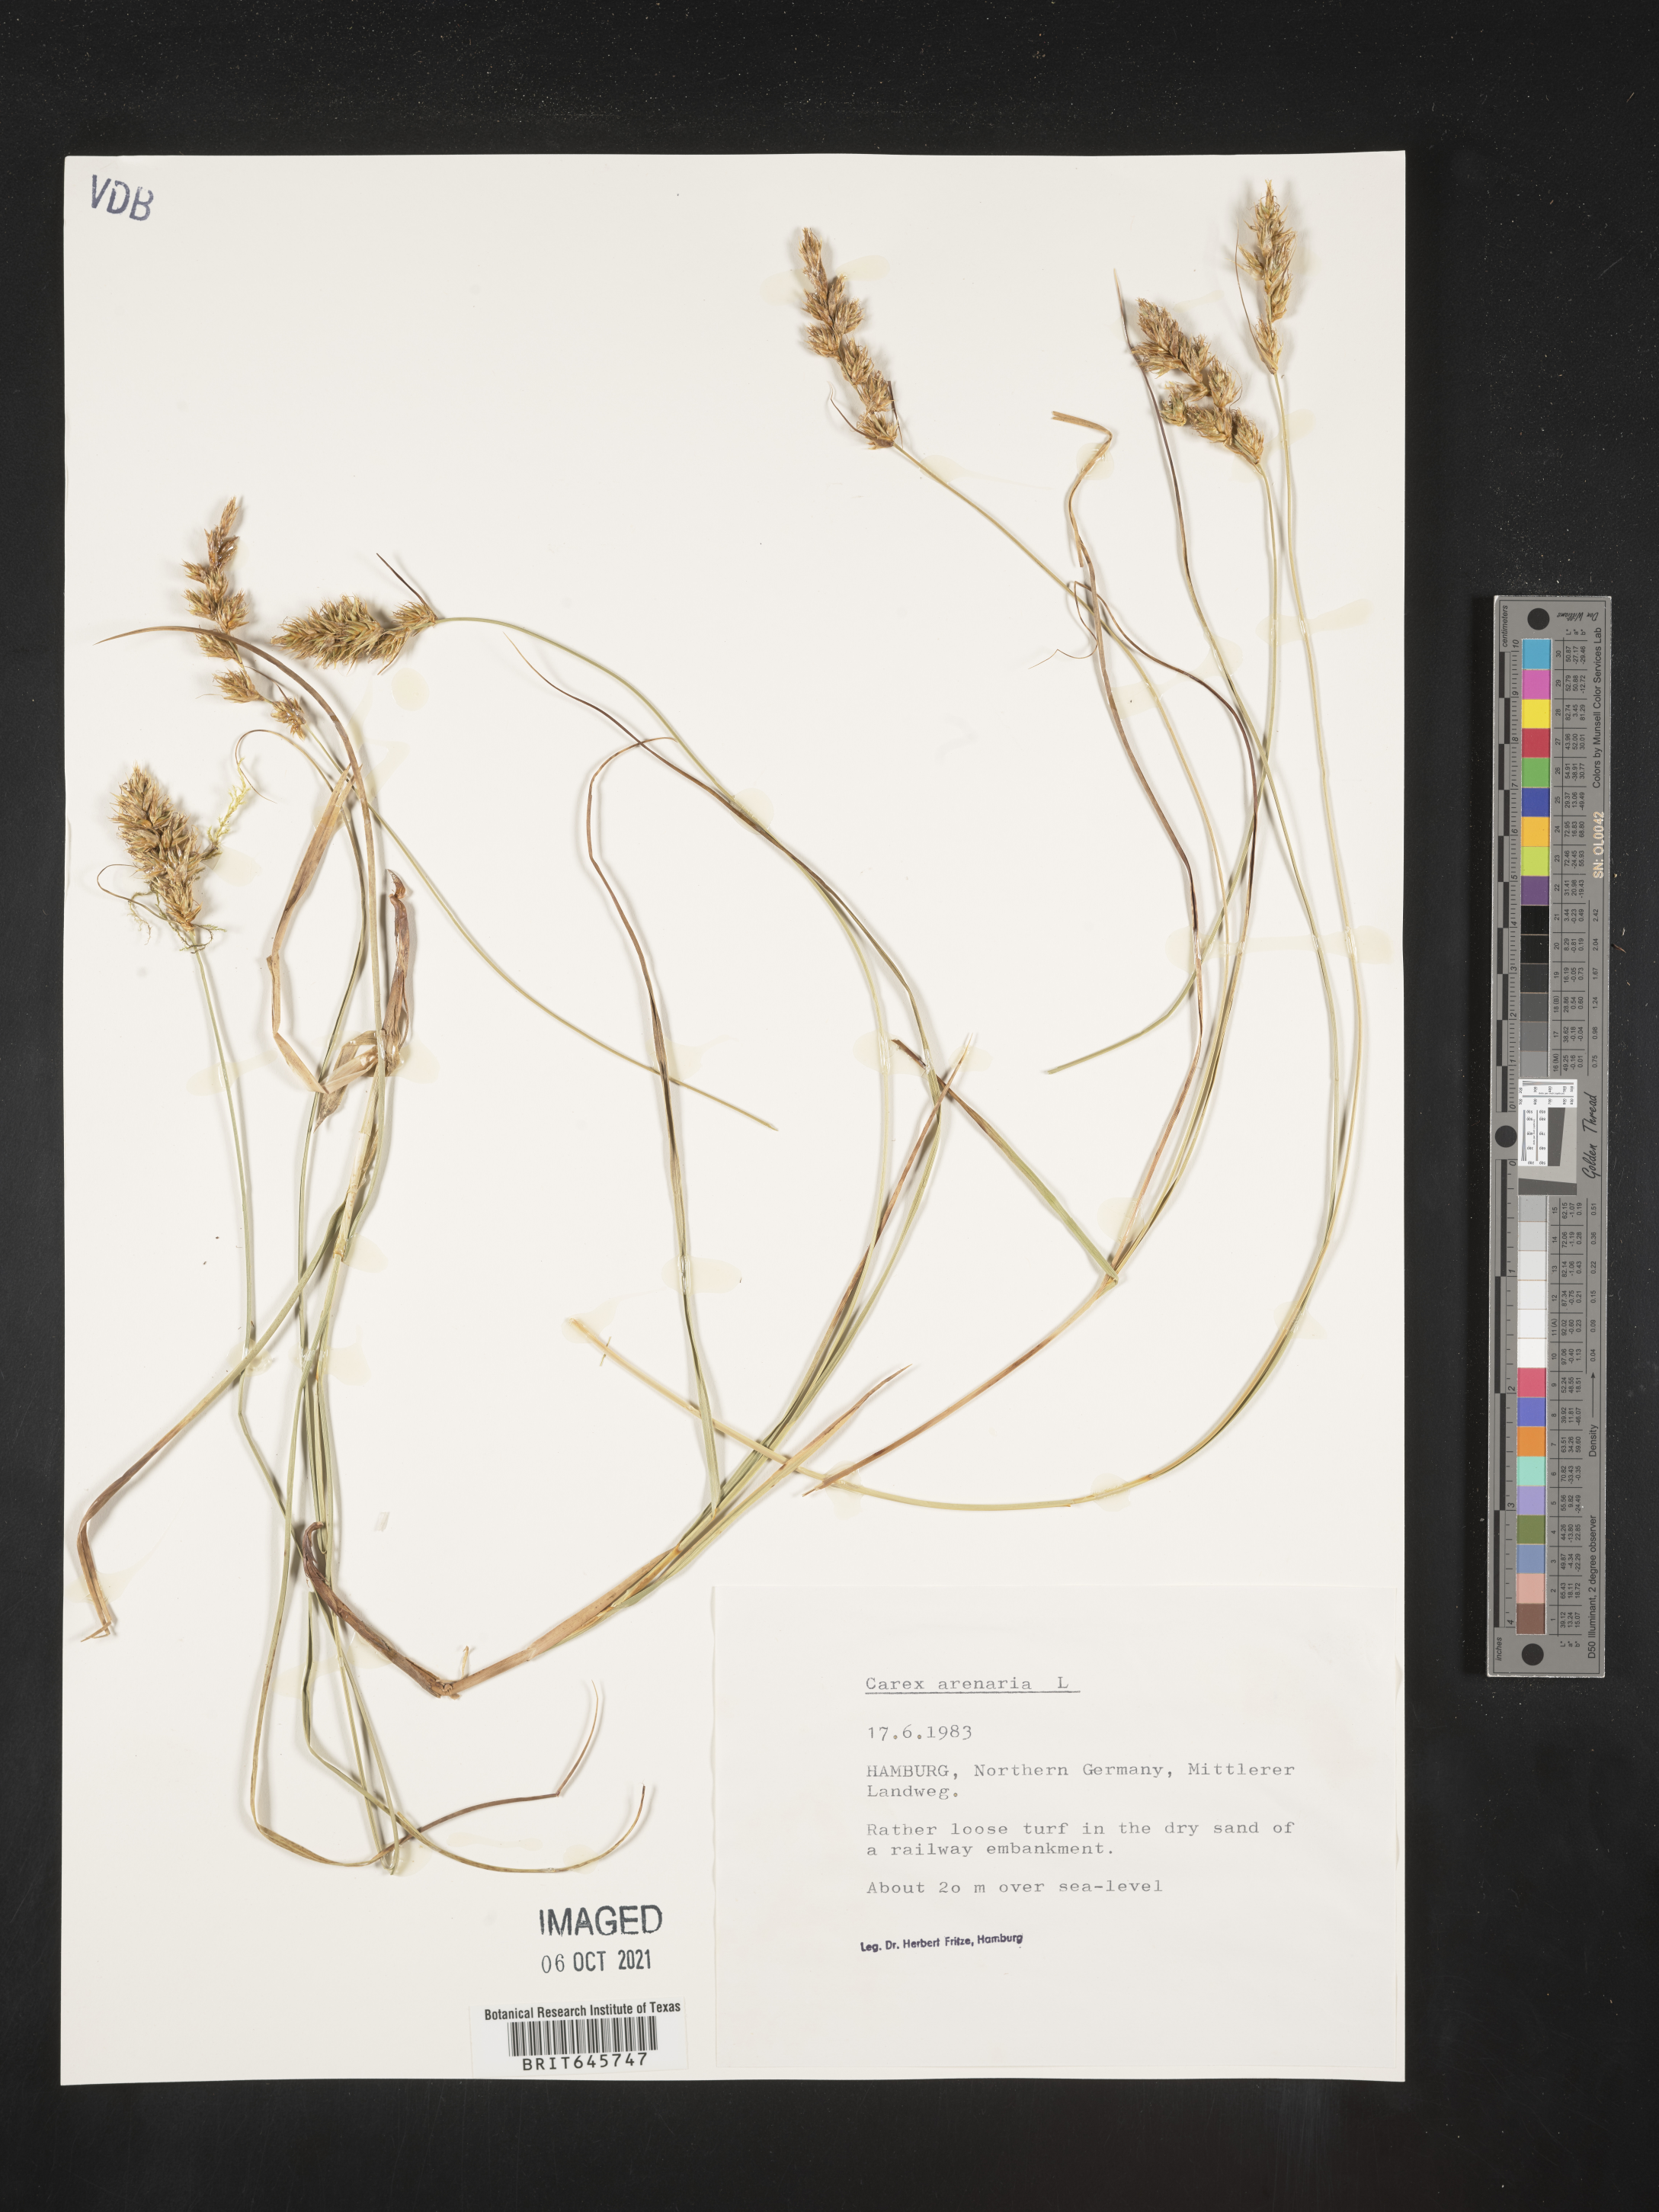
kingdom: Plantae
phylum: Tracheophyta
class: Liliopsida
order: Poales
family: Cyperaceae
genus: Carex
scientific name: Carex arenaria
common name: Sand sedge
